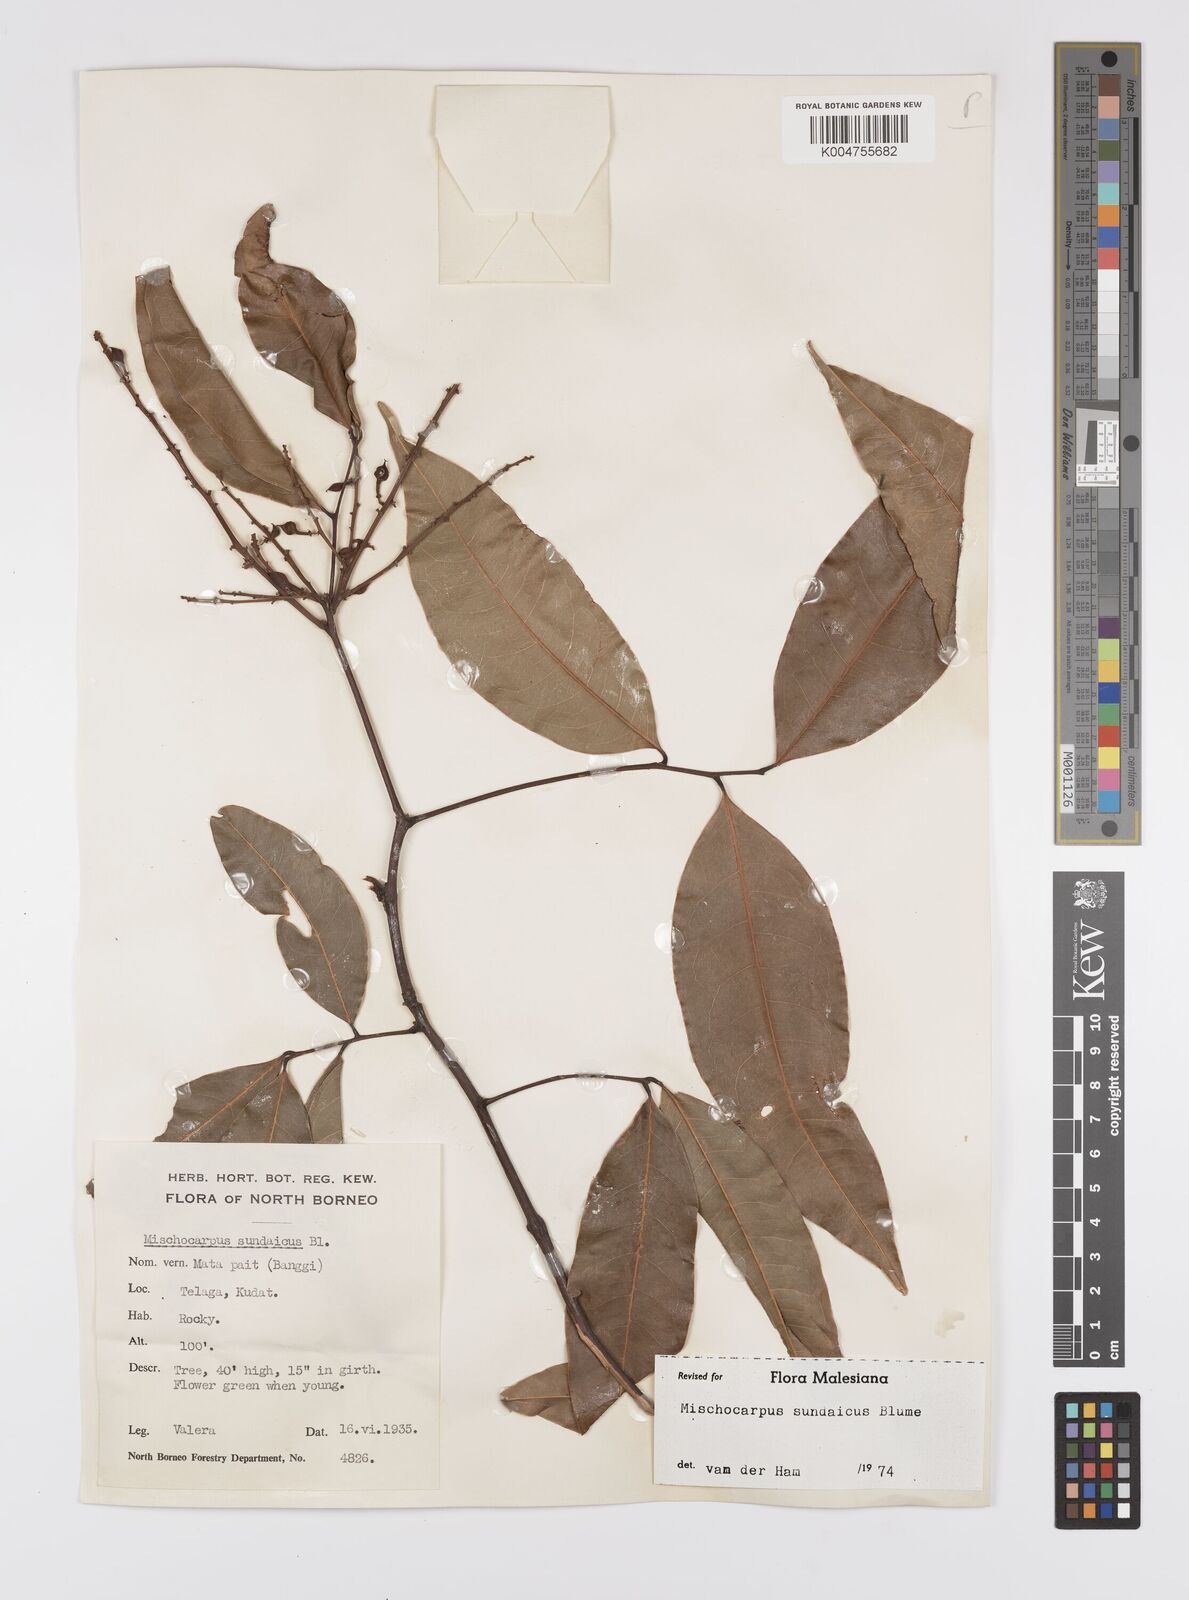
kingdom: Plantae
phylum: Tracheophyta
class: Magnoliopsida
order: Sapindales
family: Sapindaceae
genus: Mischocarpus
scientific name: Mischocarpus sundaicus
